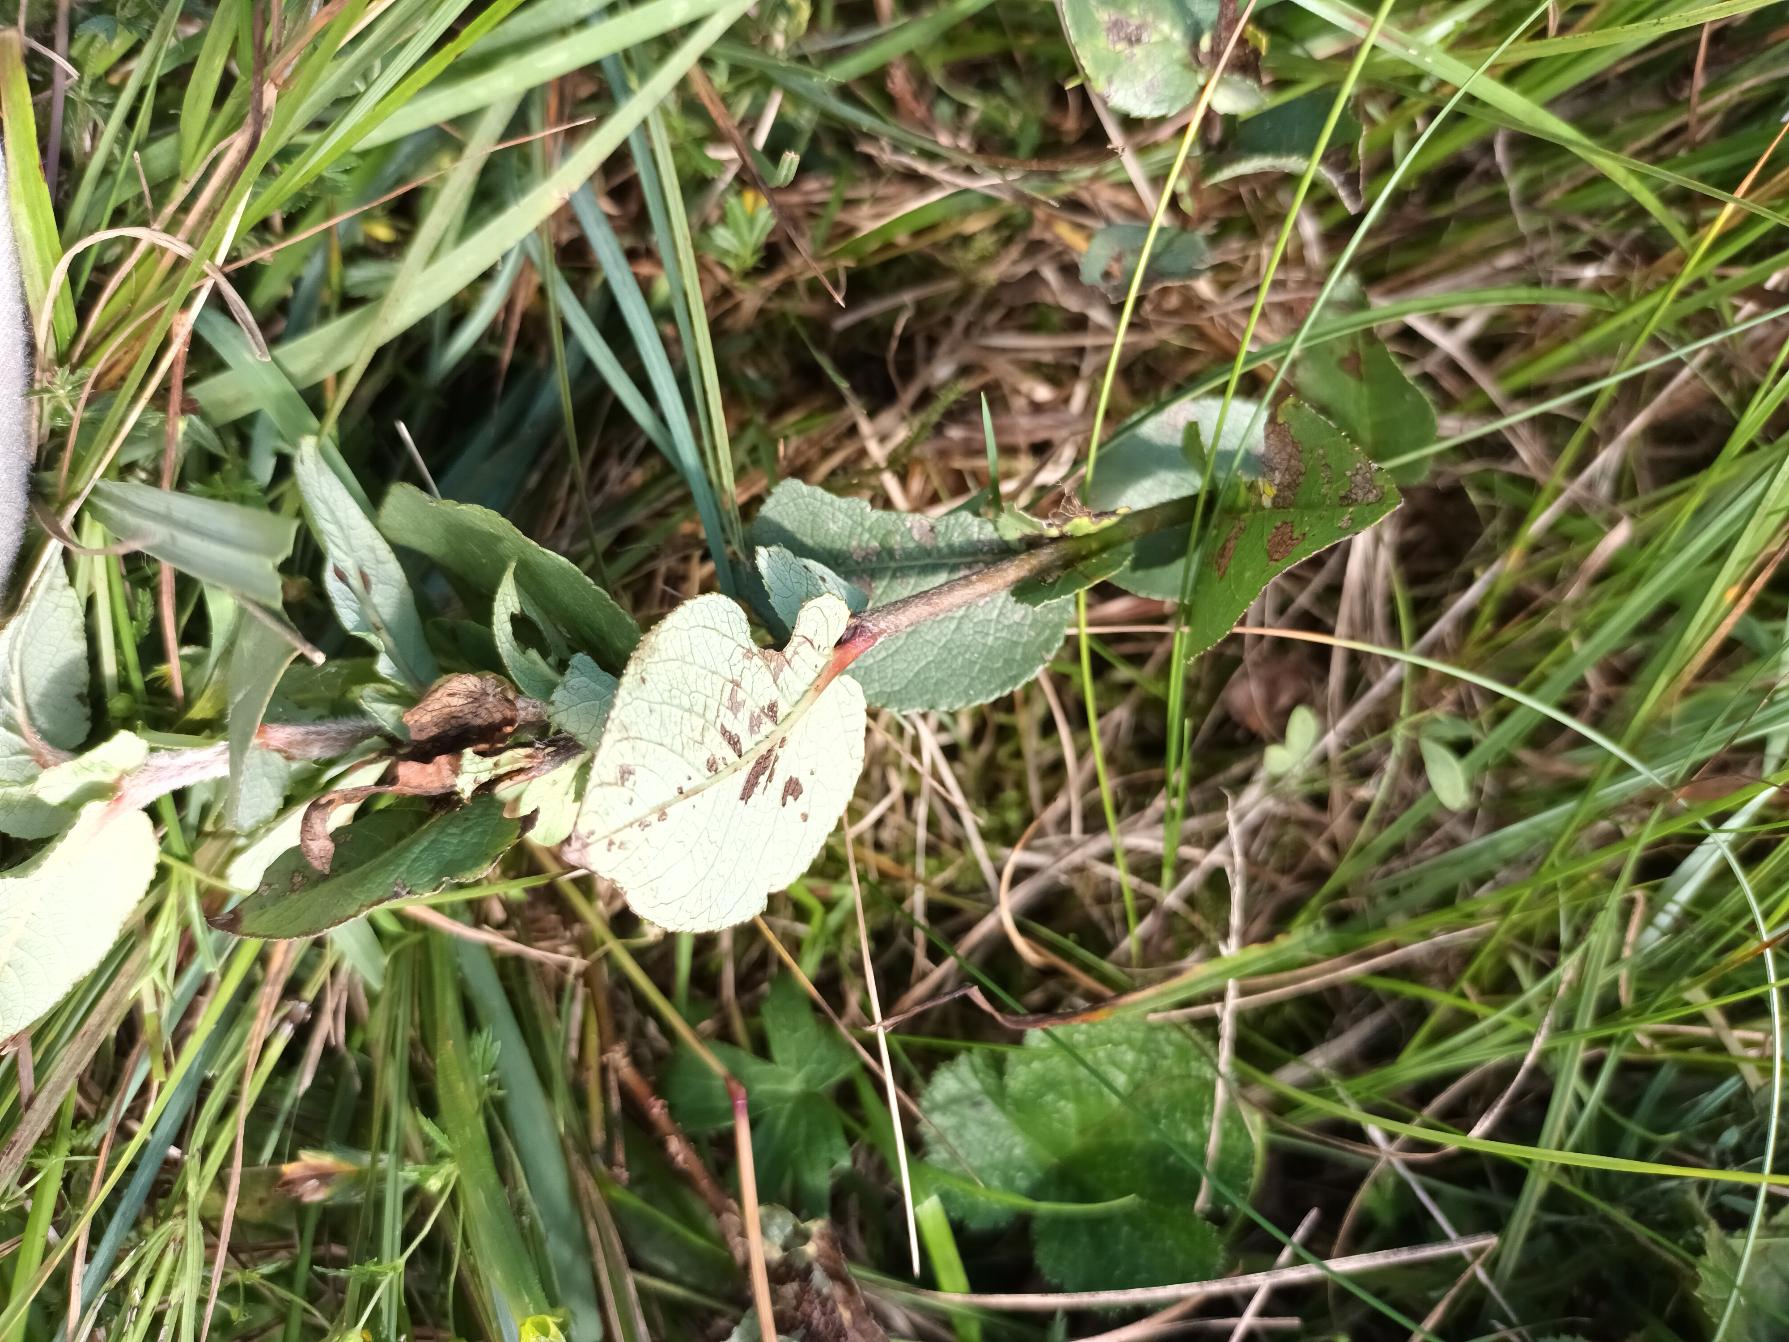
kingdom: Plantae
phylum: Tracheophyta
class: Magnoliopsida
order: Malpighiales
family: Salicaceae
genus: Salix
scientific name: Salix hastata
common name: Spyd-pil
